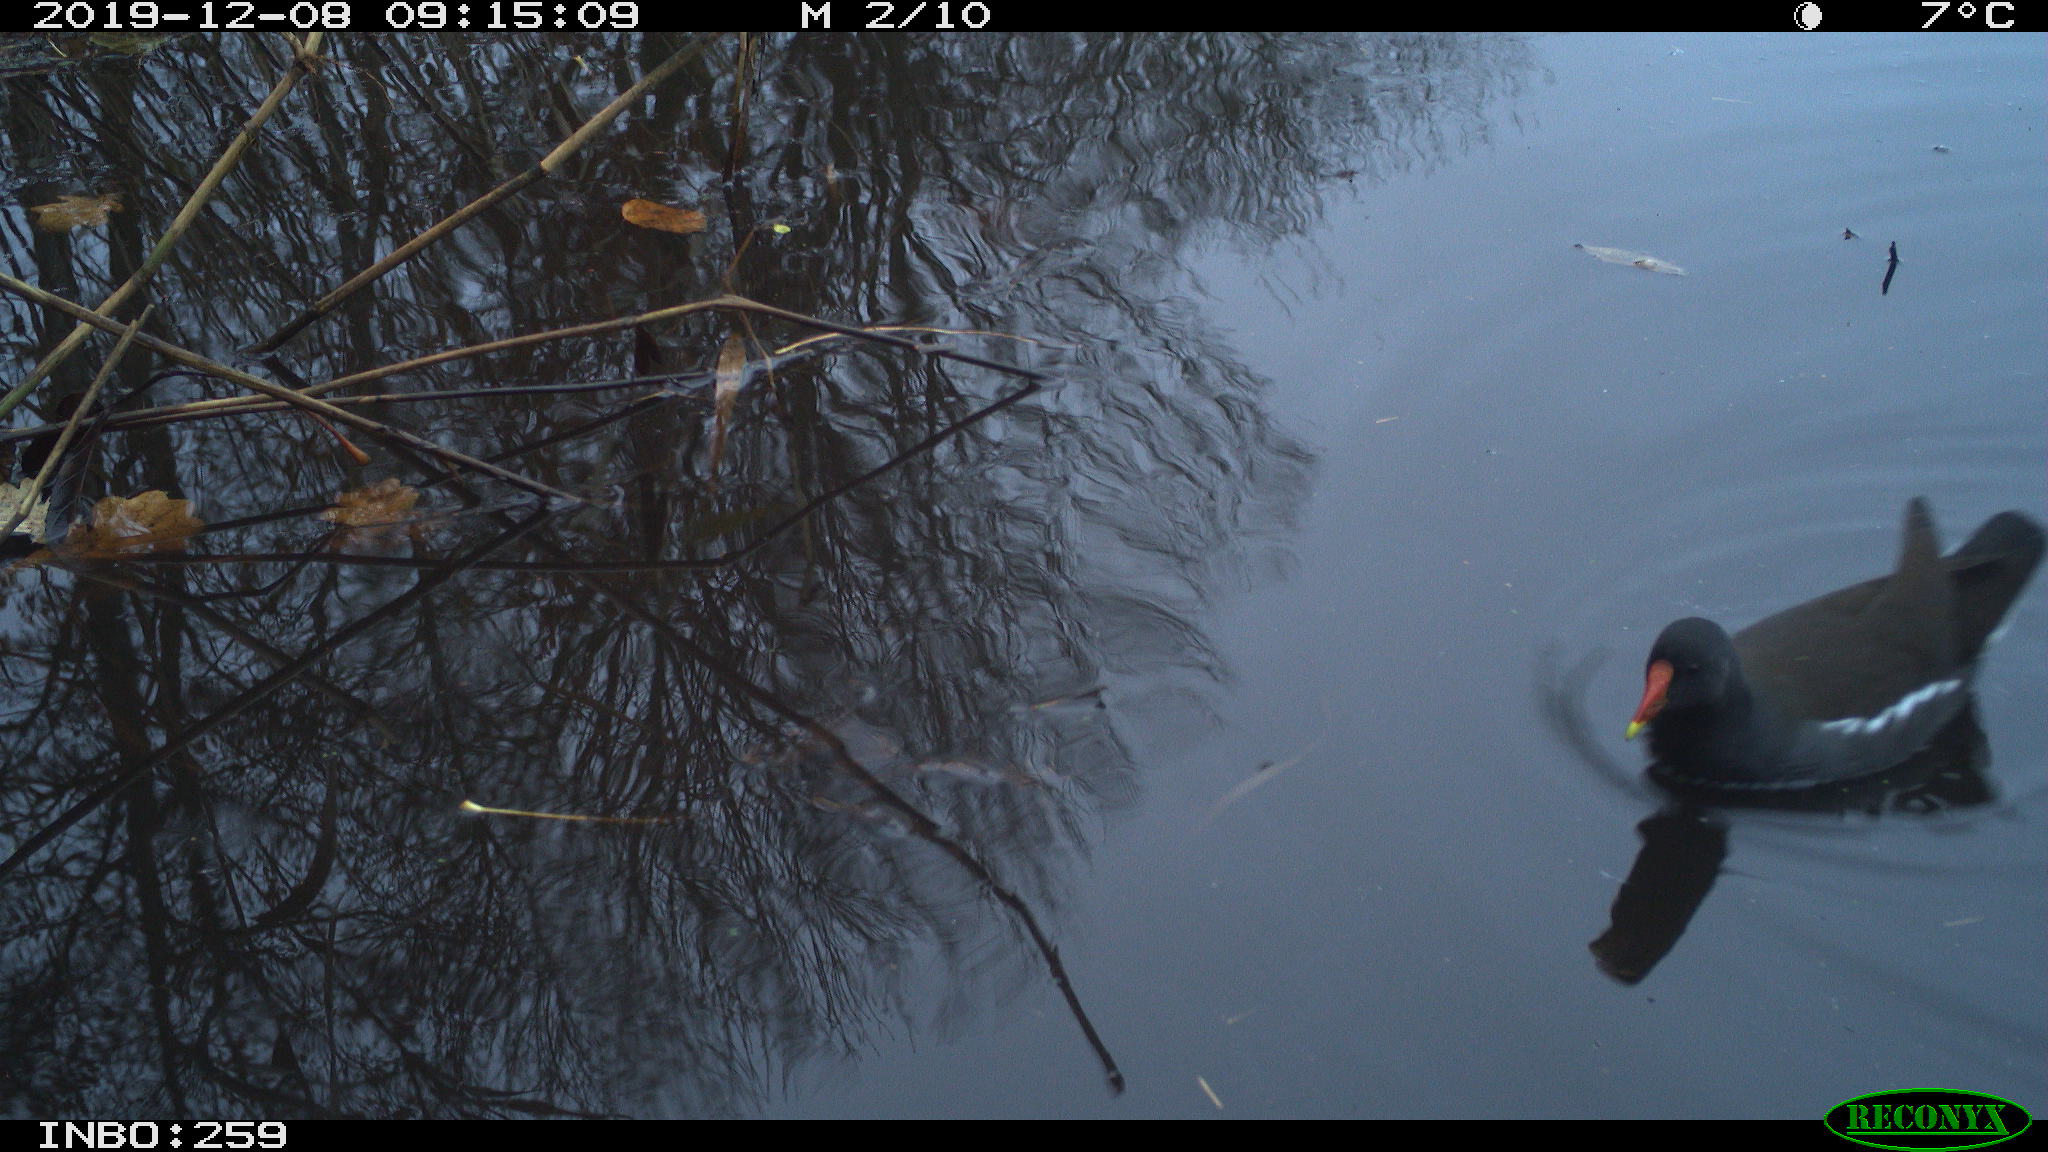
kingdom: Animalia
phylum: Chordata
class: Aves
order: Gruiformes
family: Rallidae
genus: Gallinula
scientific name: Gallinula chloropus
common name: Common moorhen
